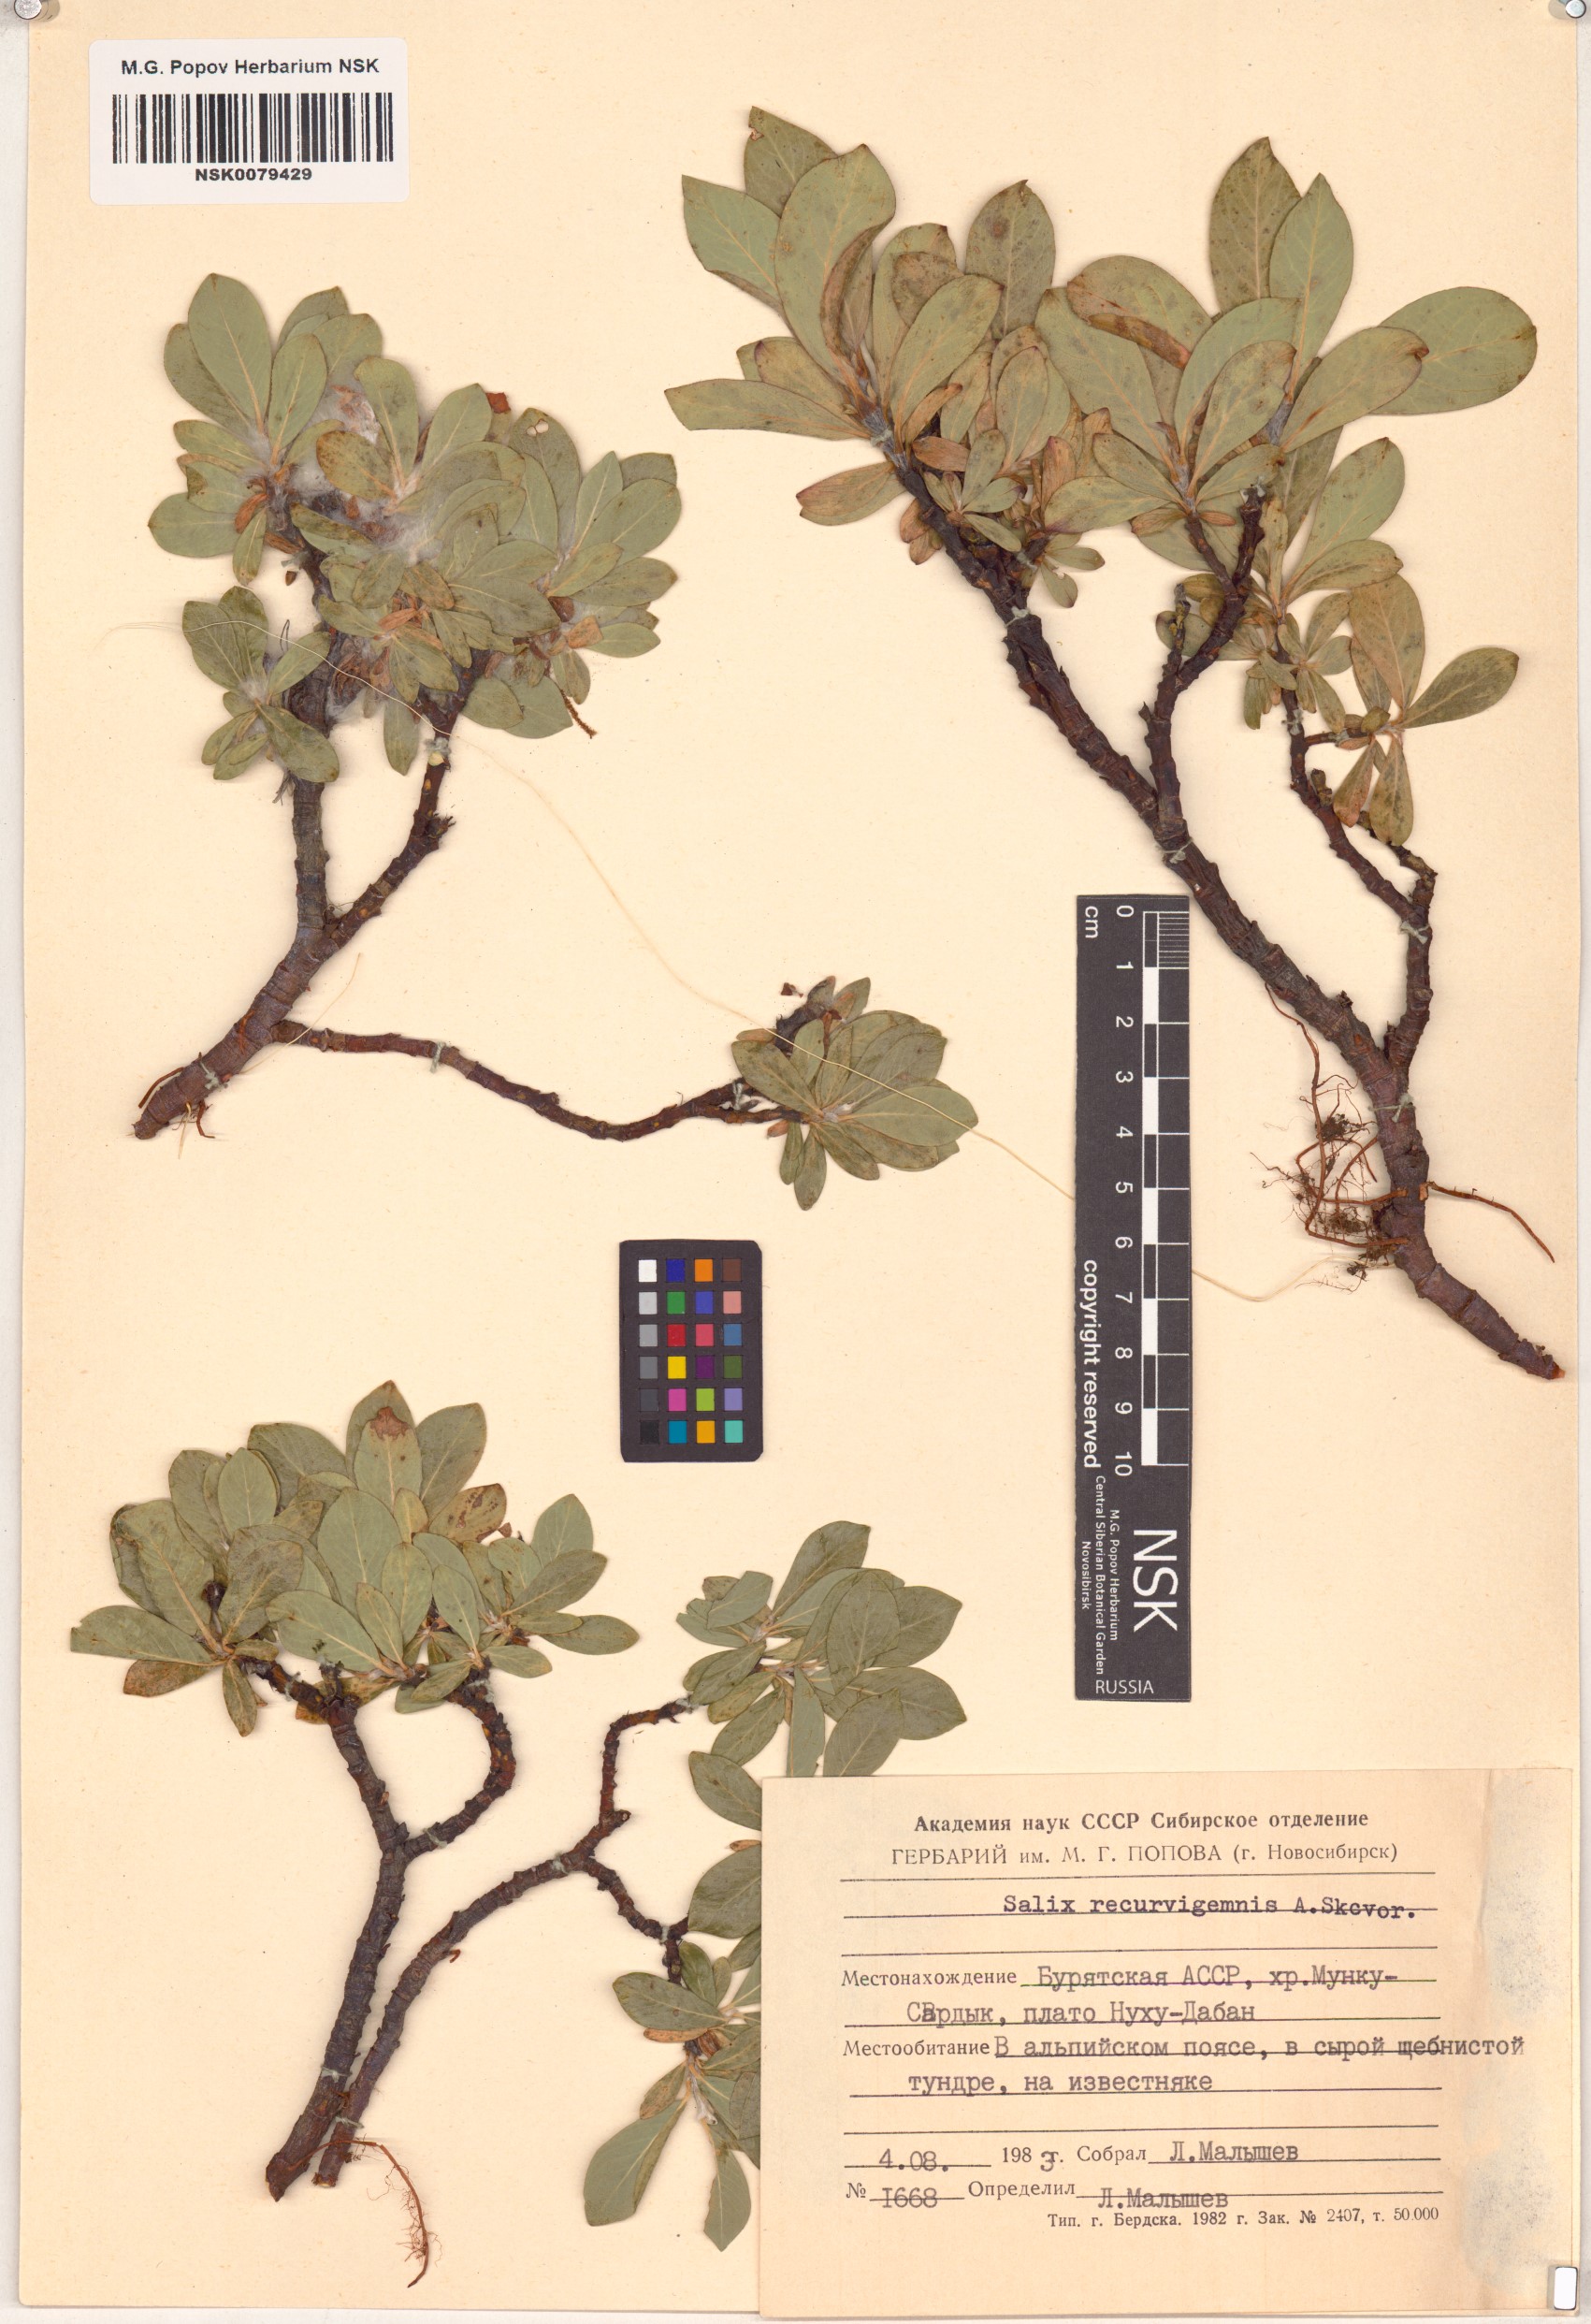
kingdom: Plantae
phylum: Tracheophyta
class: Magnoliopsida
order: Malpighiales
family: Salicaceae
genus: Salix
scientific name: Salix recurvigemmata
